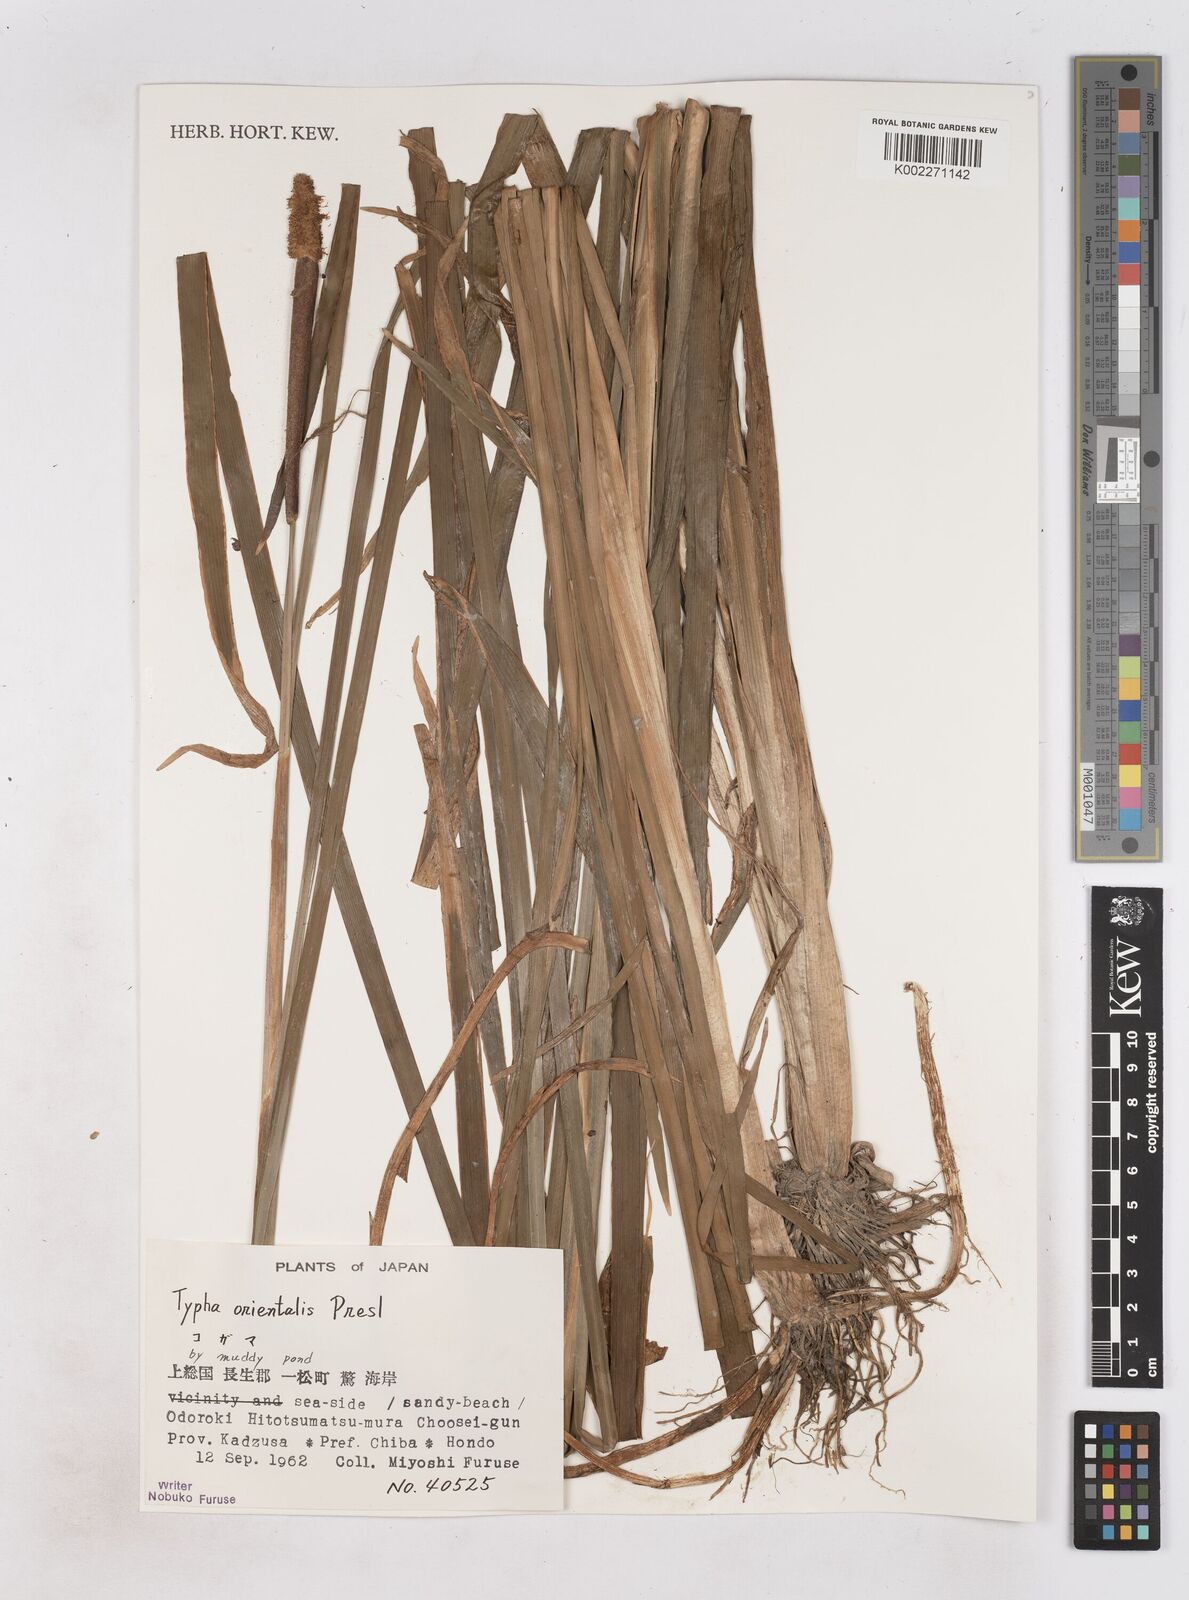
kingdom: Plantae
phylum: Tracheophyta
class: Liliopsida
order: Poales
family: Typhaceae
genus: Typha
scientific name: Typha shuttleworthii
